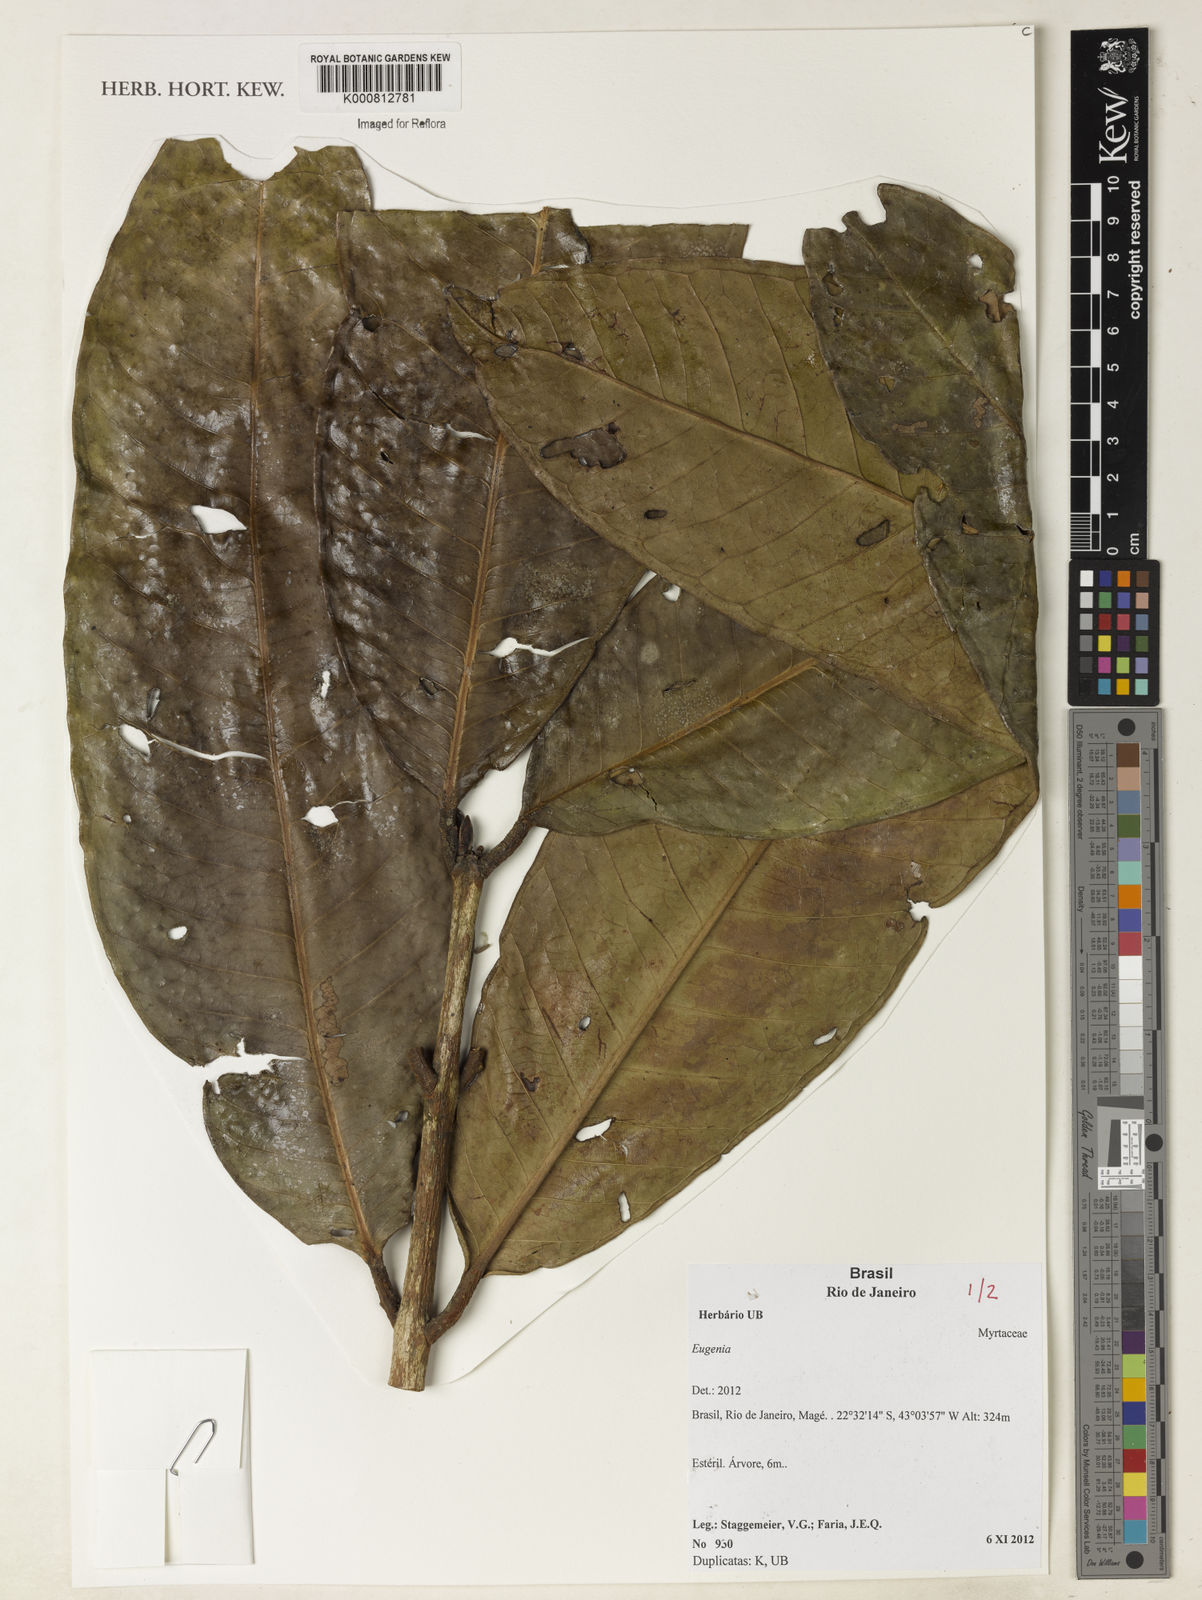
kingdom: Plantae
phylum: Tracheophyta
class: Magnoliopsida
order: Myrtales
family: Myrtaceae
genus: Eugenia
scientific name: Eugenia
